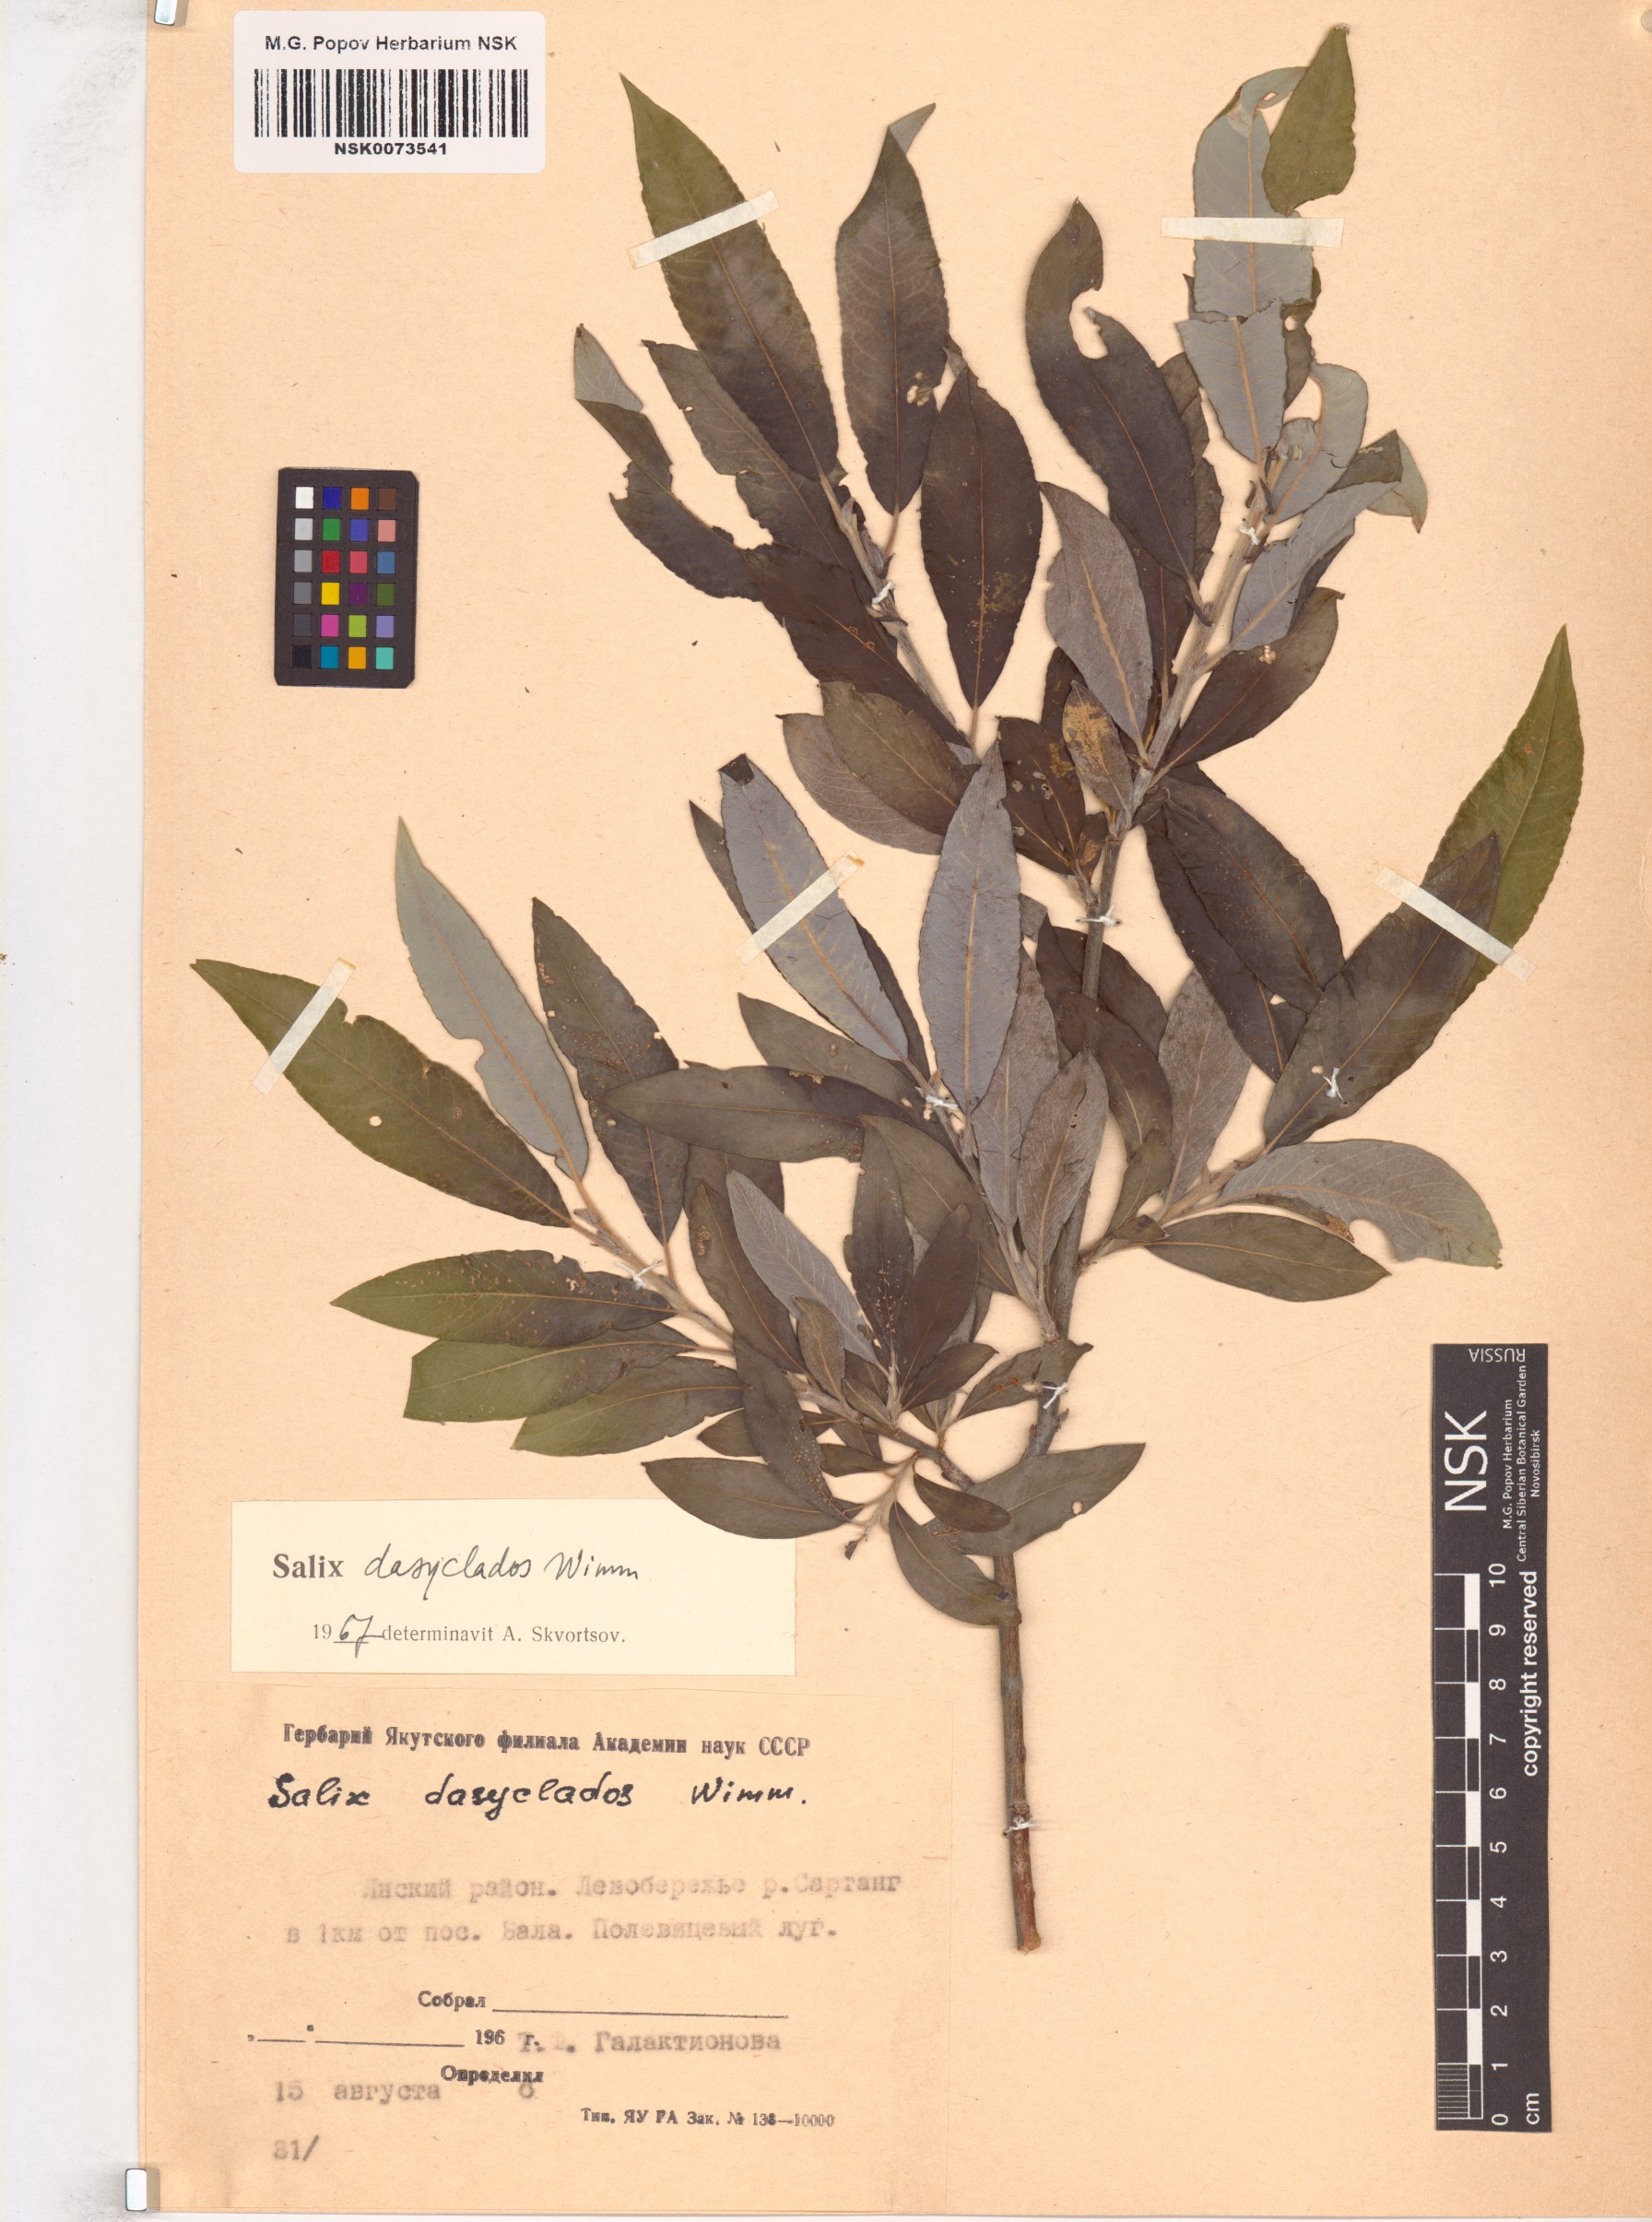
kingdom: Plantae
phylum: Tracheophyta
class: Magnoliopsida
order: Malpighiales
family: Salicaceae
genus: Salix
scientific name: Salix gmelinii
